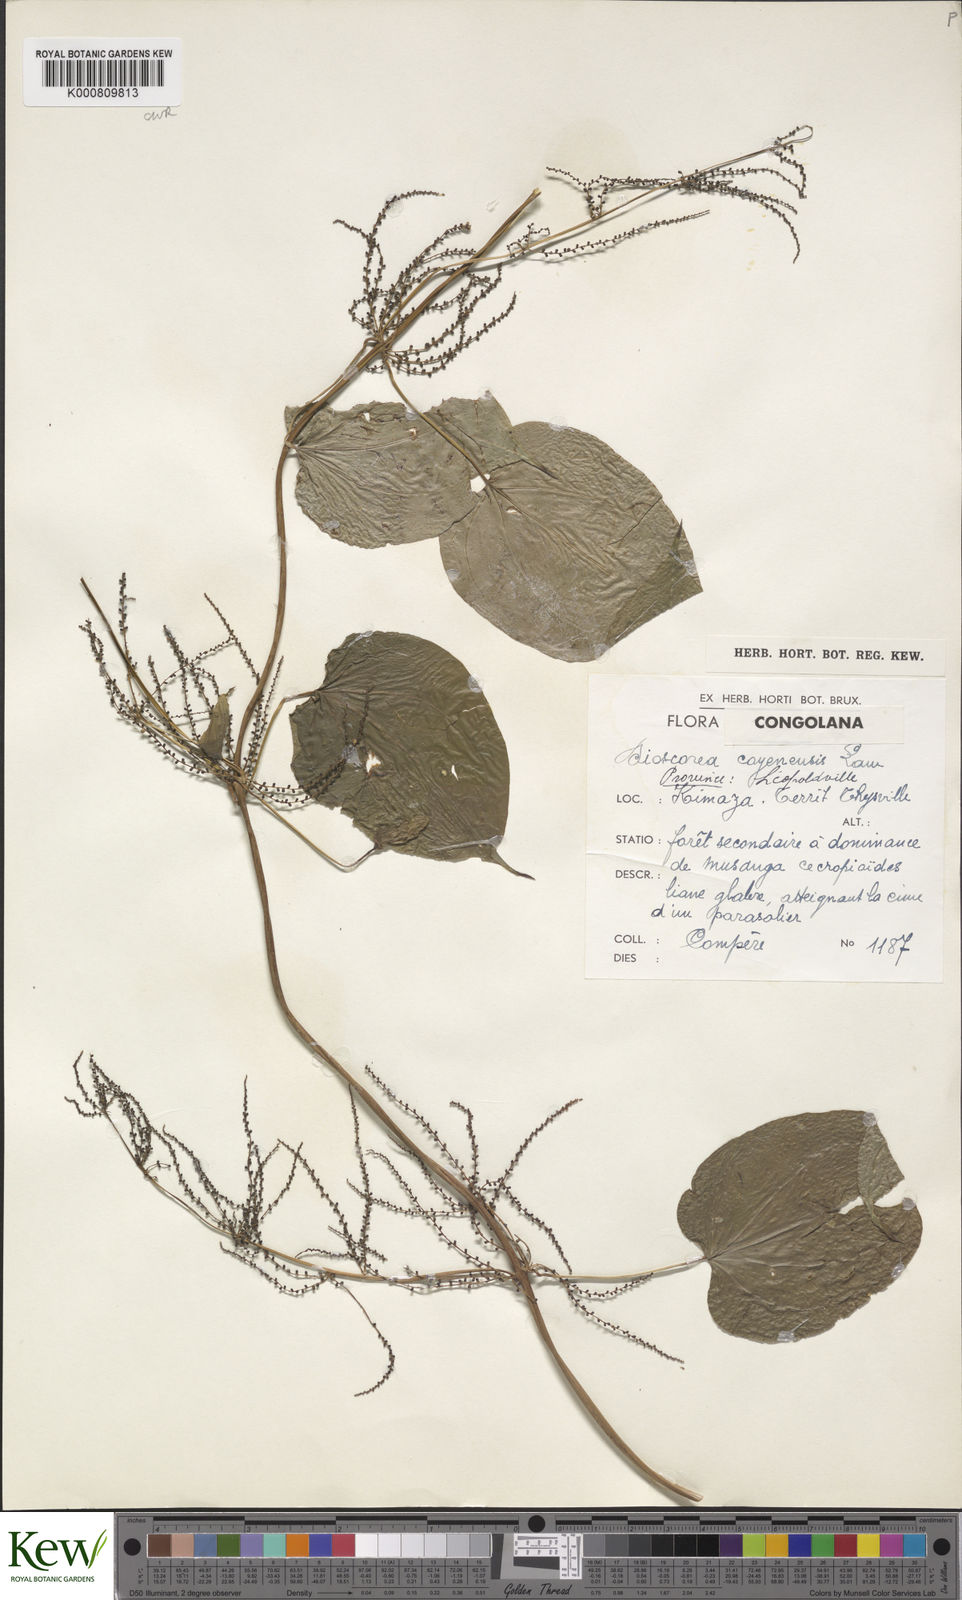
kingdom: Plantae
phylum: Tracheophyta
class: Liliopsida
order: Dioscoreales
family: Dioscoreaceae
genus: Dioscorea
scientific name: Dioscorea cayenensis
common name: Attoto yam
